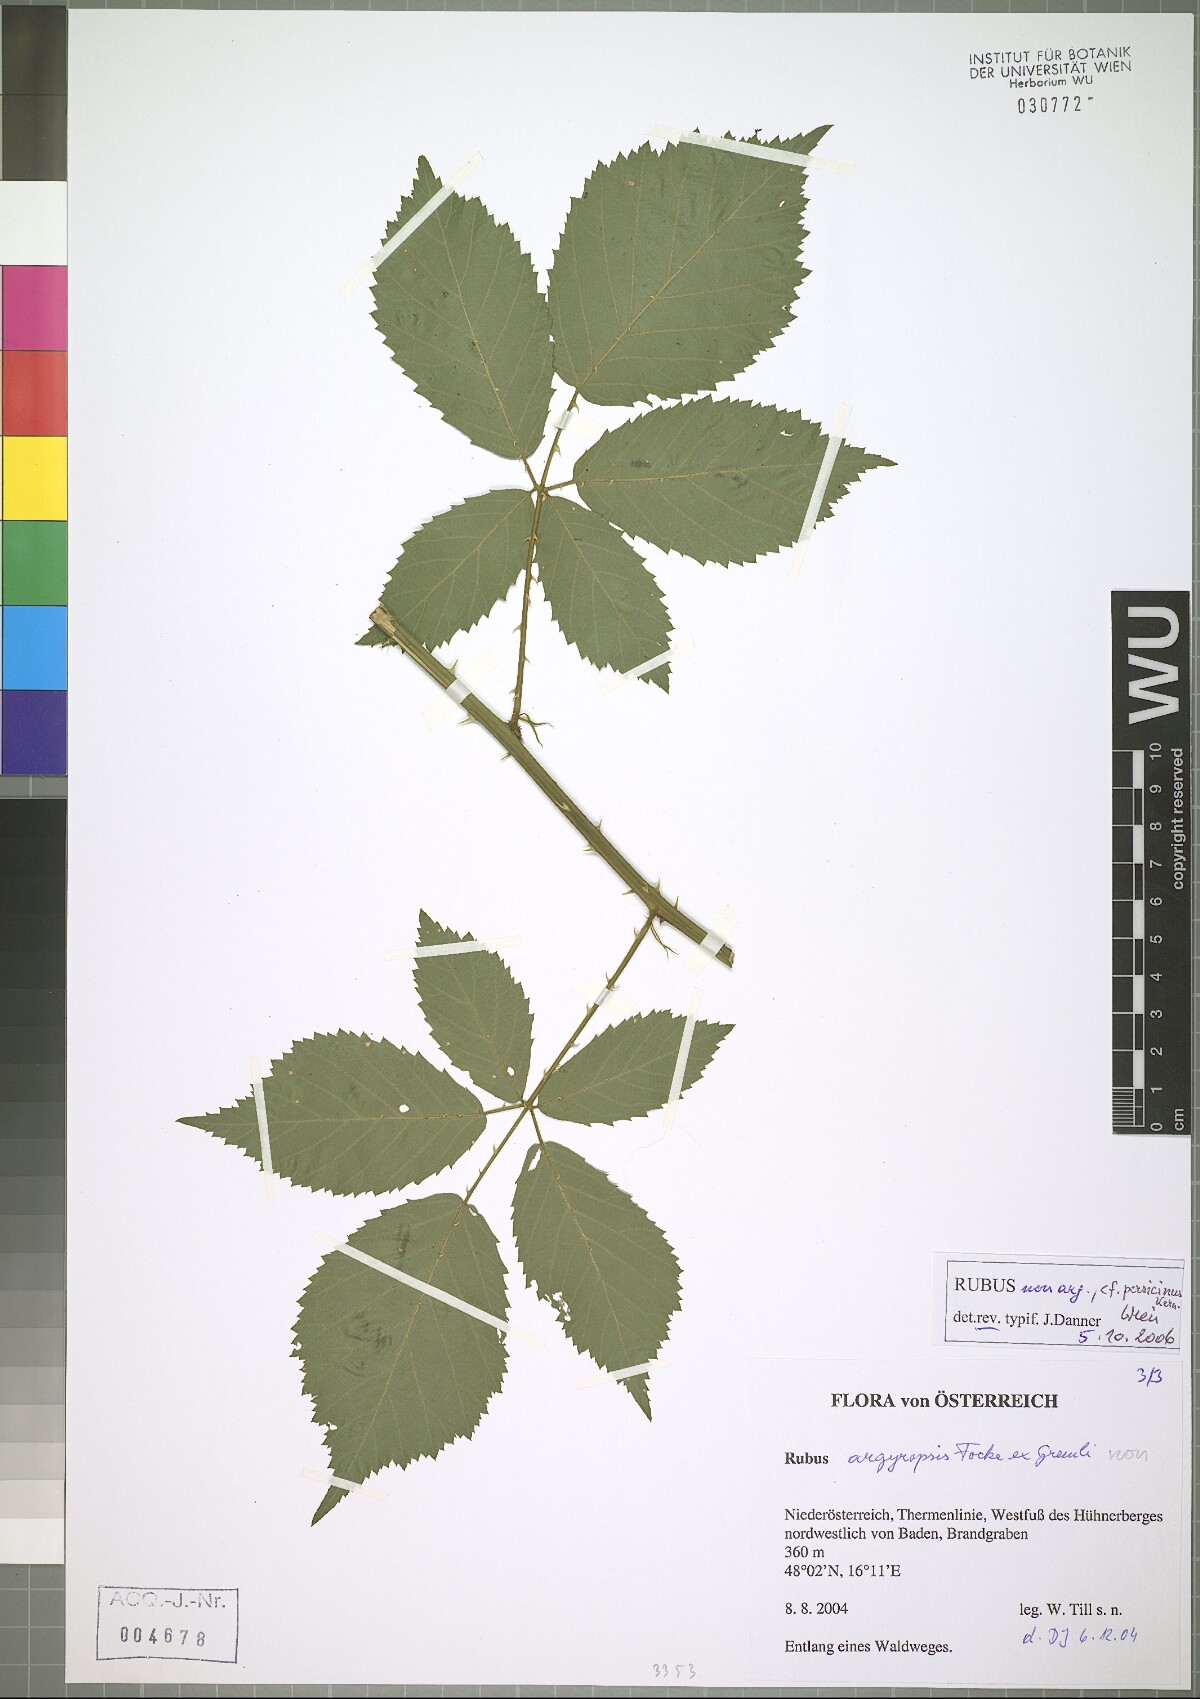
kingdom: Plantae
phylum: Tracheophyta
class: Magnoliopsida
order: Rosales
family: Rosaceae
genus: Rubus
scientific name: Rubus persicinus
